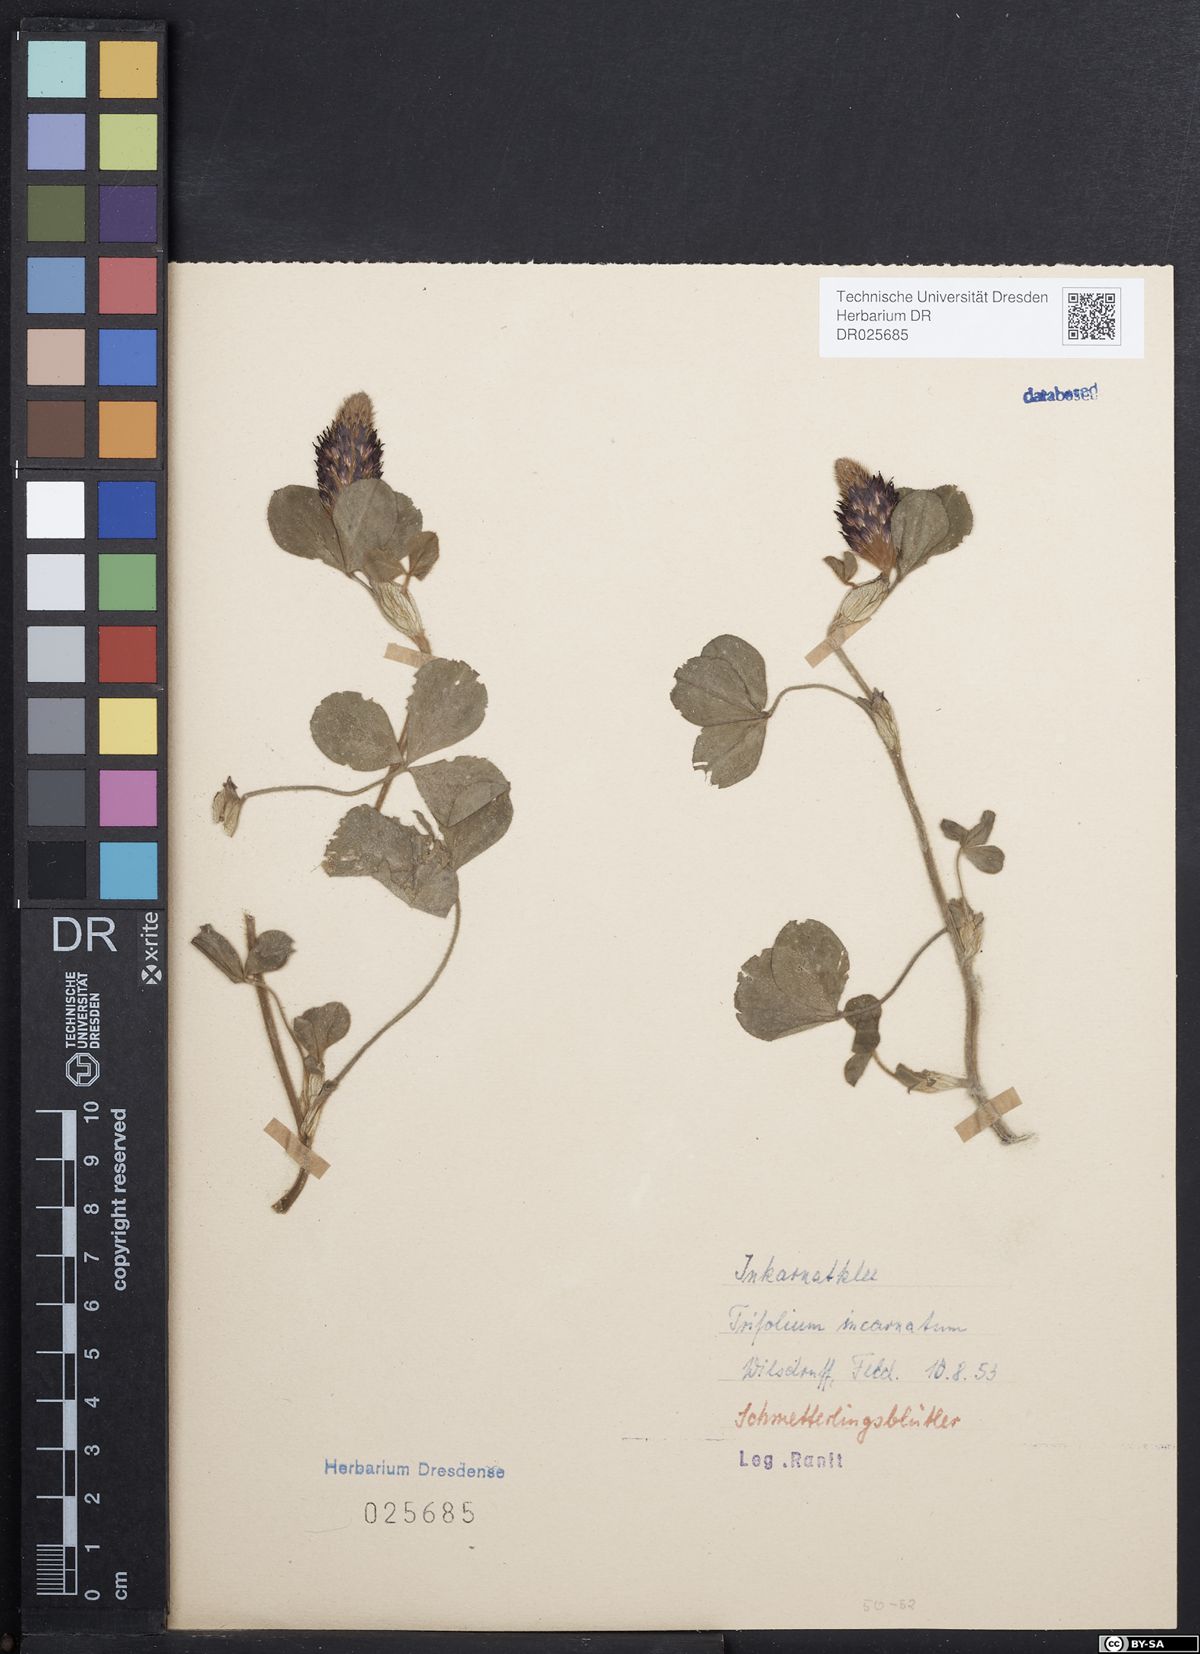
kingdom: Plantae
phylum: Tracheophyta
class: Magnoliopsida
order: Fabales
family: Fabaceae
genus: Trifolium
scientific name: Trifolium incarnatum
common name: Crimson clover
